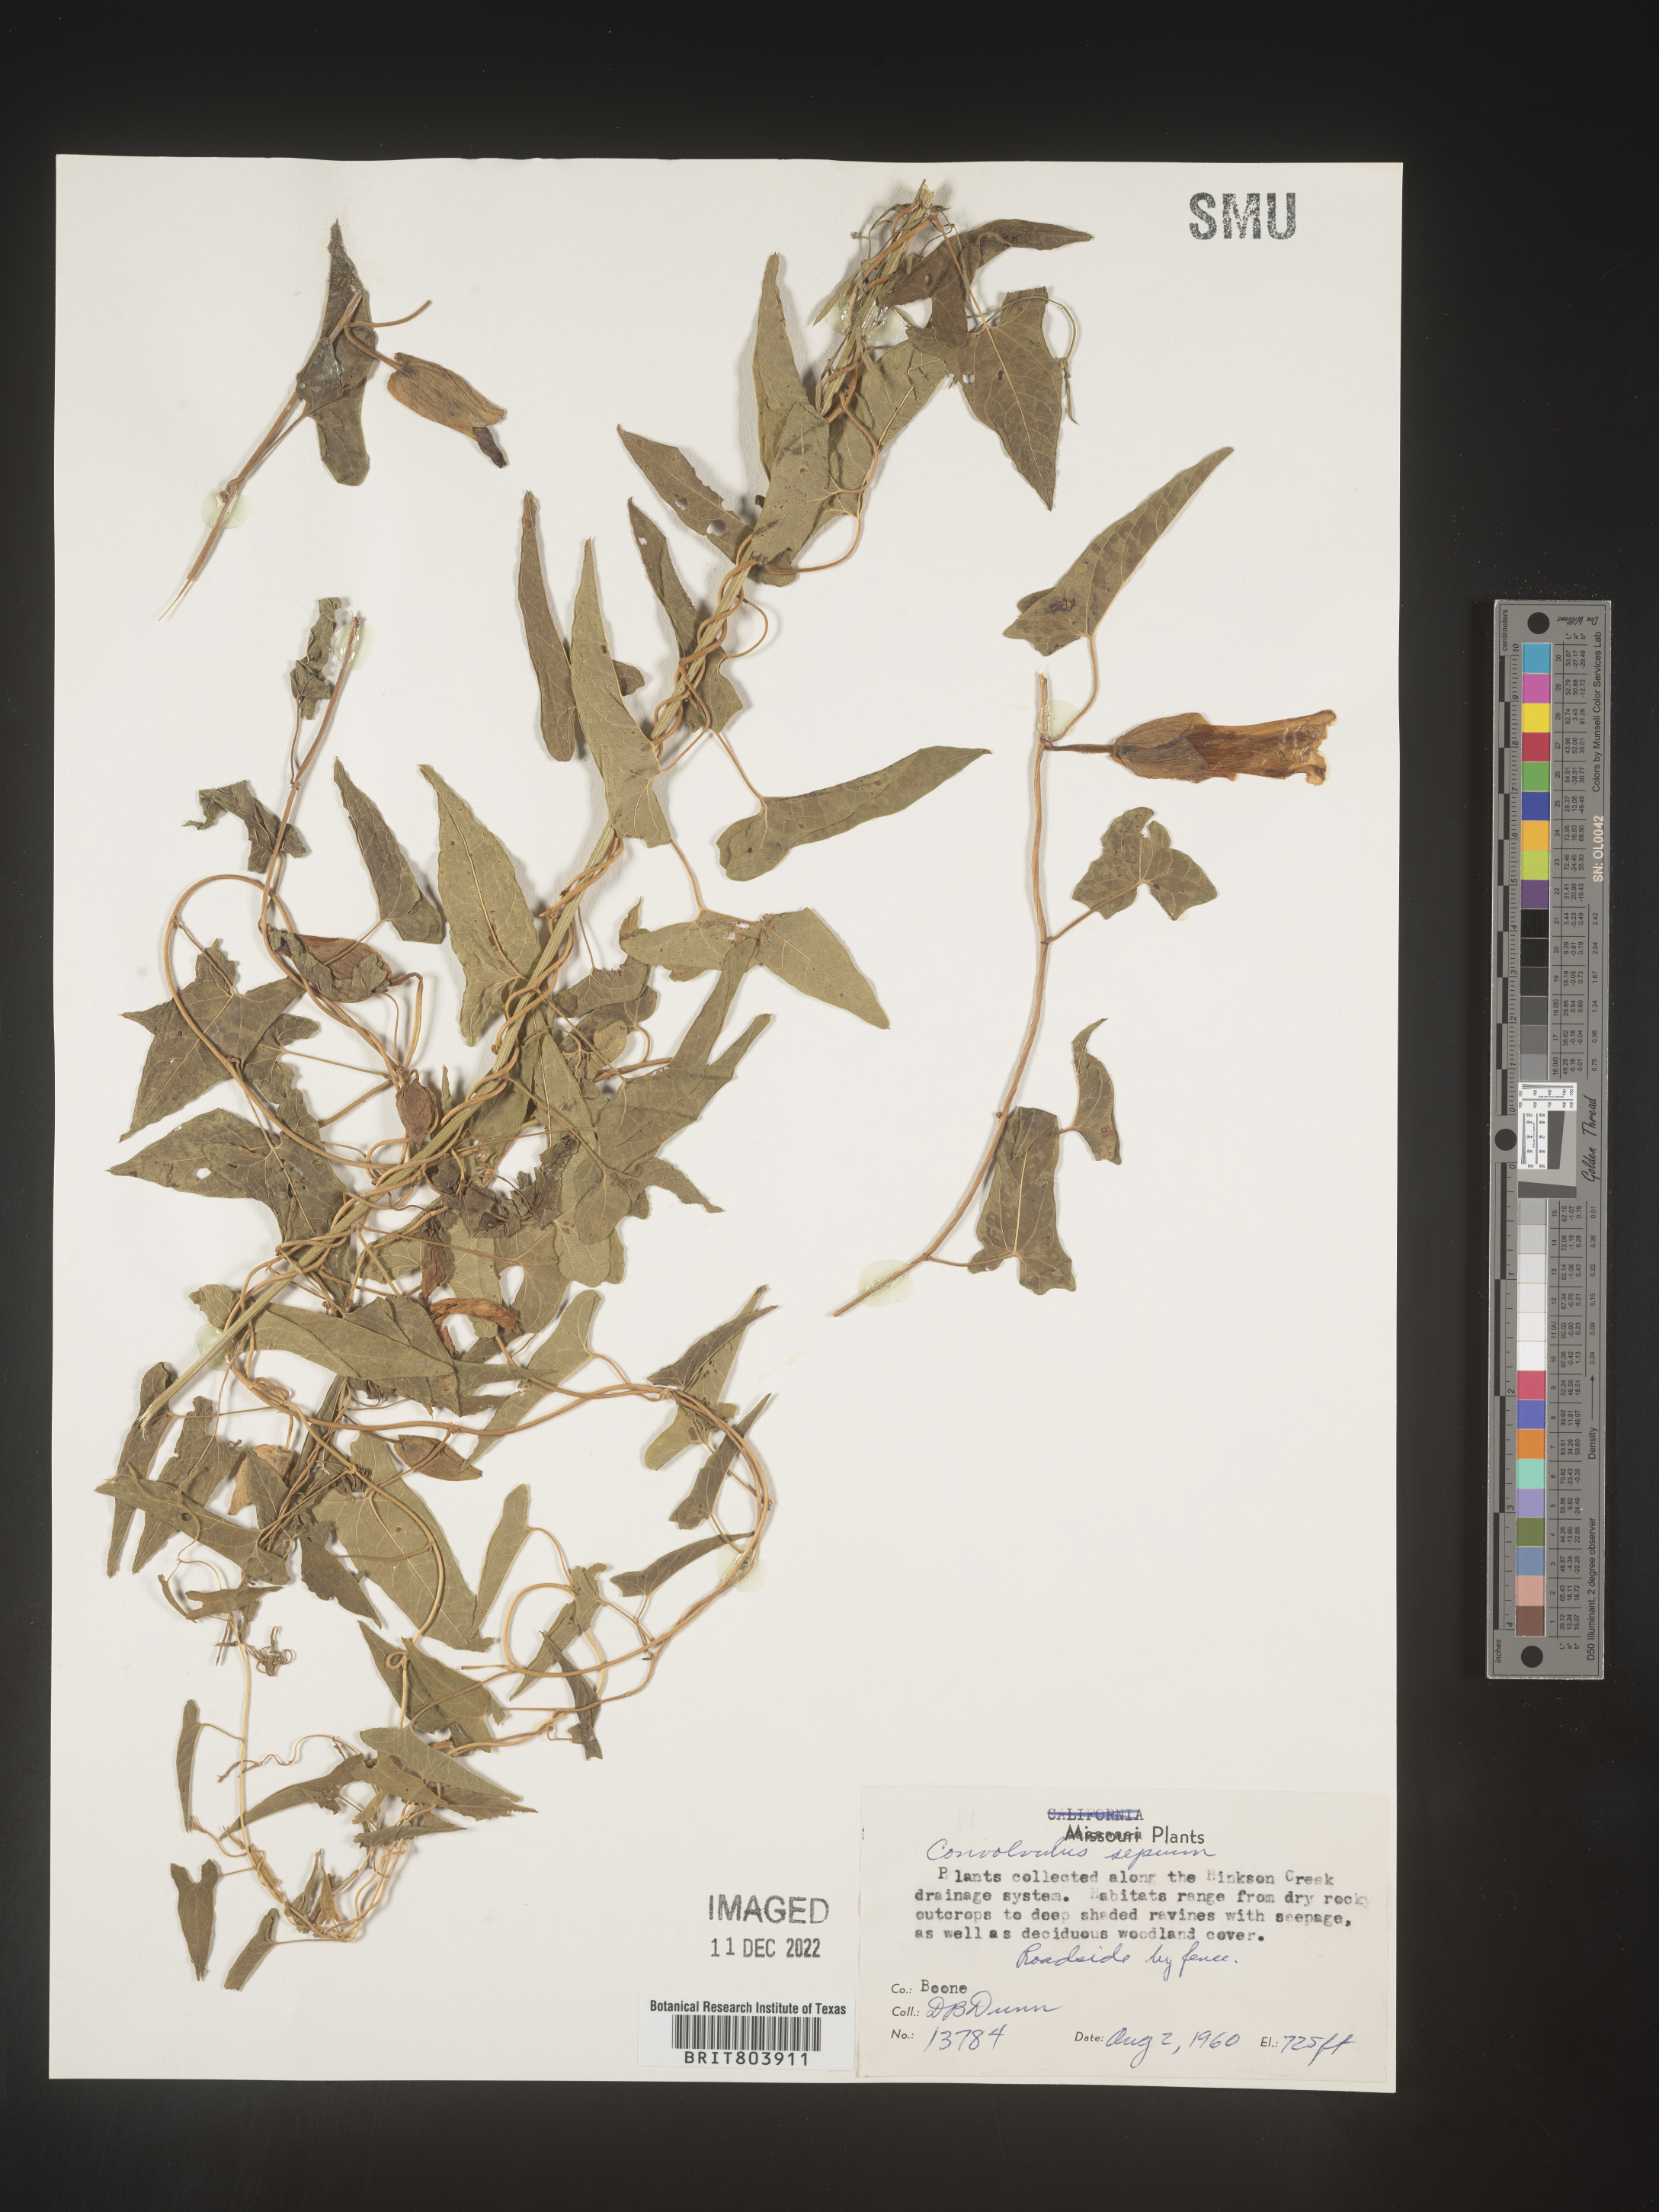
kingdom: Plantae
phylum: Tracheophyta
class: Magnoliopsida
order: Solanales
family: Convolvulaceae
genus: Calystegia
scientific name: Calystegia sepium
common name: Hedge bindweed
